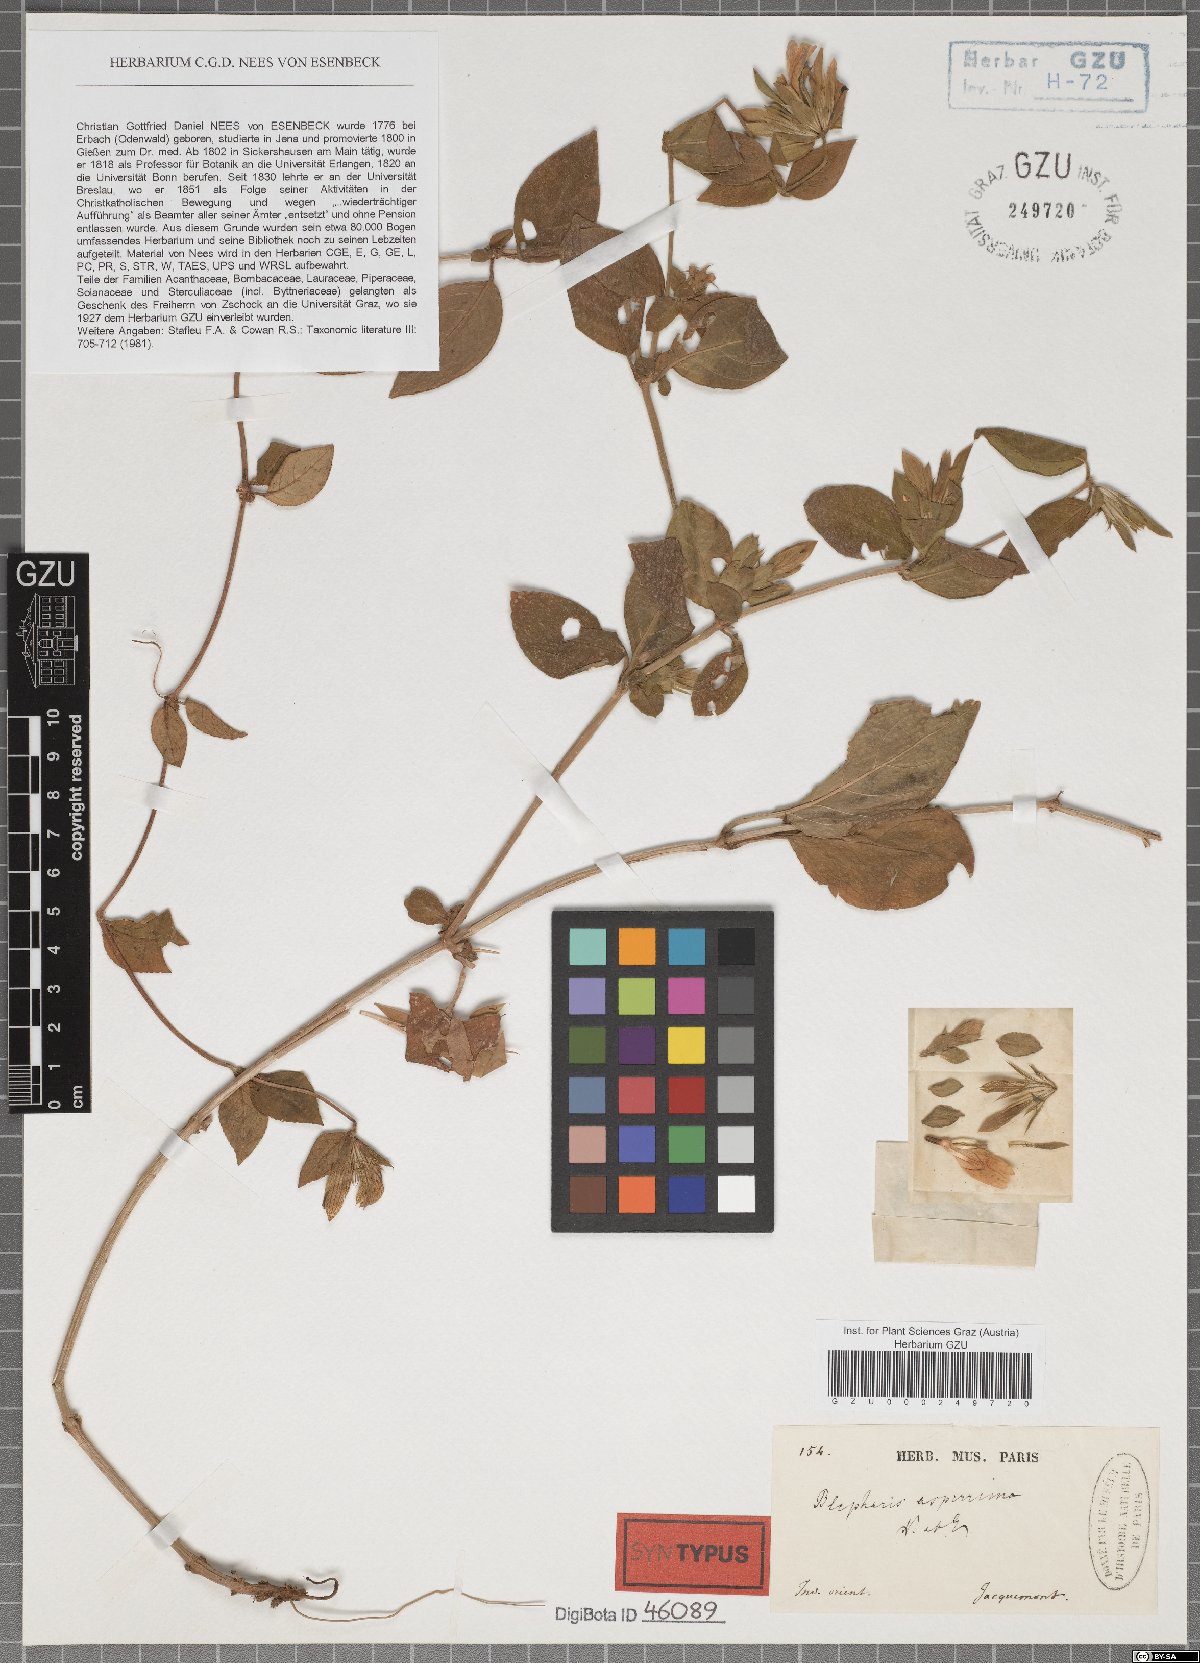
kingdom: Plantae
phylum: Tracheophyta
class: Magnoliopsida
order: Lamiales
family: Acanthaceae
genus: Cynarospermum
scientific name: Cynarospermum asperrimum
